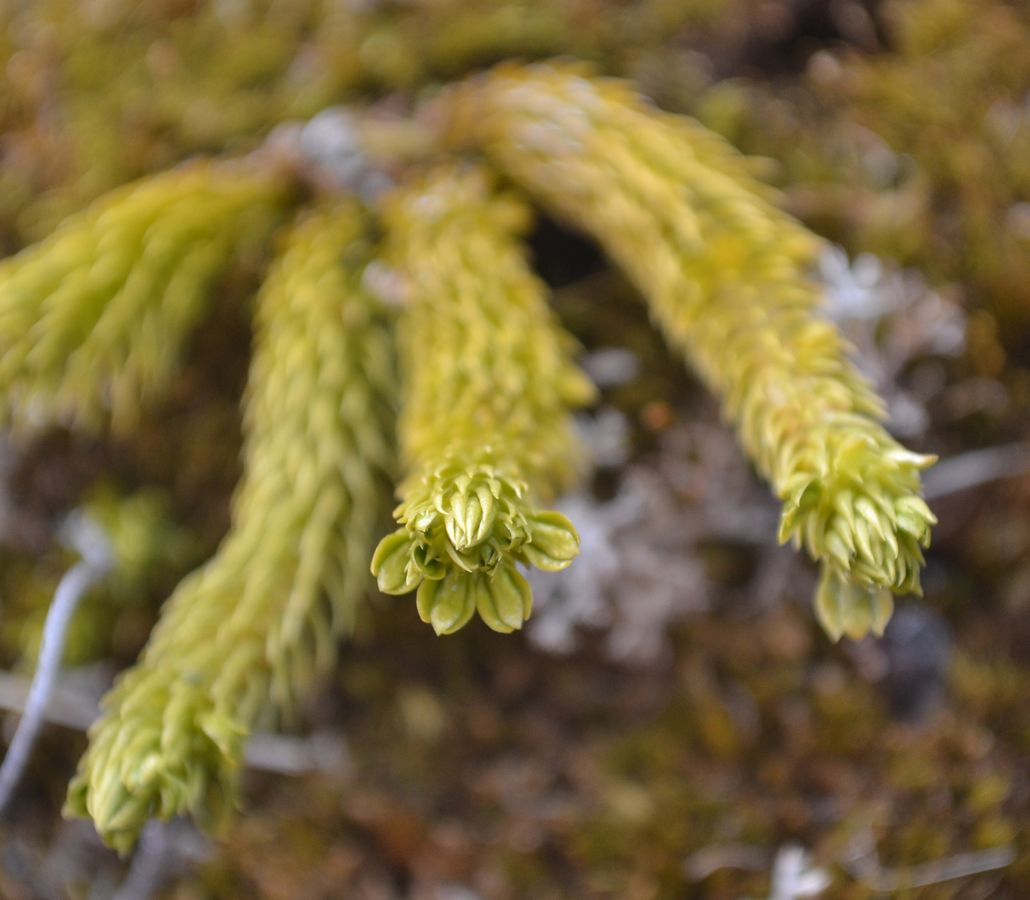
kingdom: Plantae
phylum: Tracheophyta
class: Lycopodiopsida
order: Lycopodiales
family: Lycopodiaceae
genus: Huperzia
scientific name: Huperzia selago
